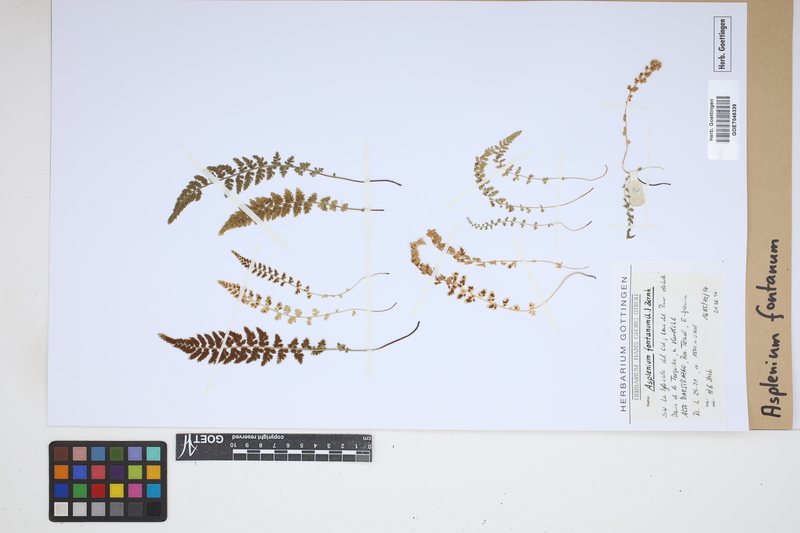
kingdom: Plantae
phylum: Tracheophyta
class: Polypodiopsida
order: Polypodiales
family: Aspleniaceae
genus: Asplenium
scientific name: Asplenium fontanum
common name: Fountain spleenwort
